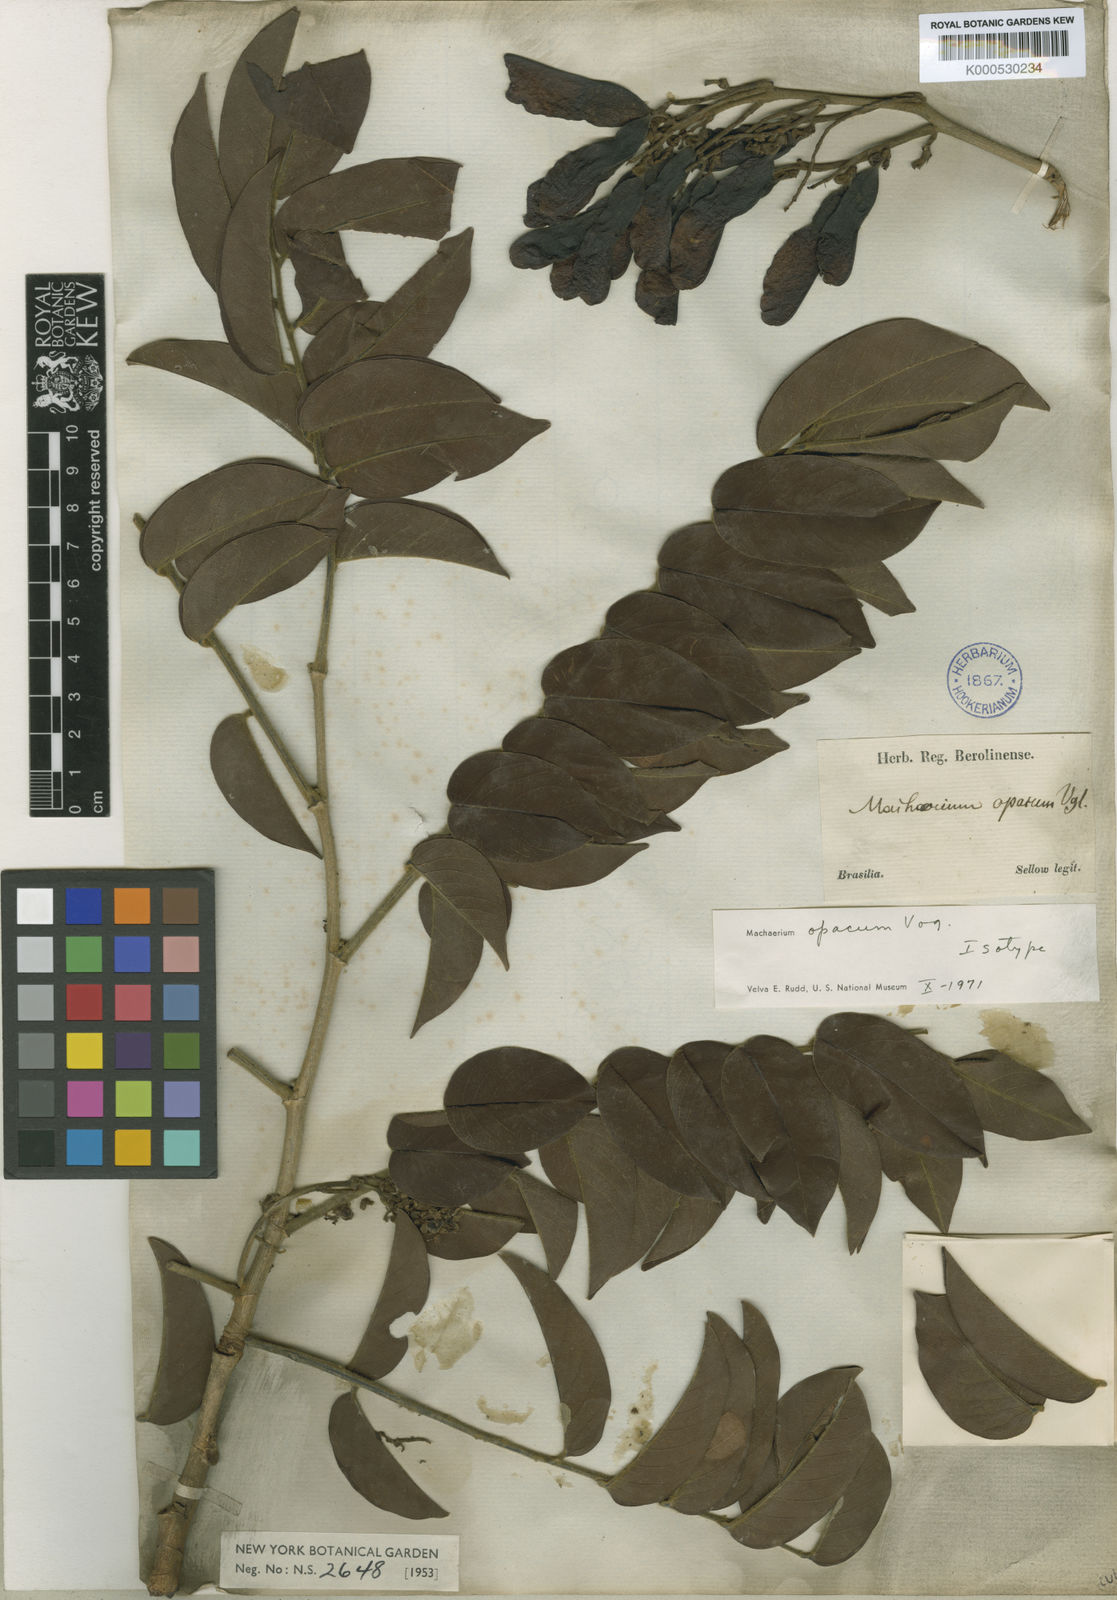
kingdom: Plantae
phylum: Tracheophyta
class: Magnoliopsida
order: Fabales
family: Fabaceae
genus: Machaerium
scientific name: Machaerium opacum
